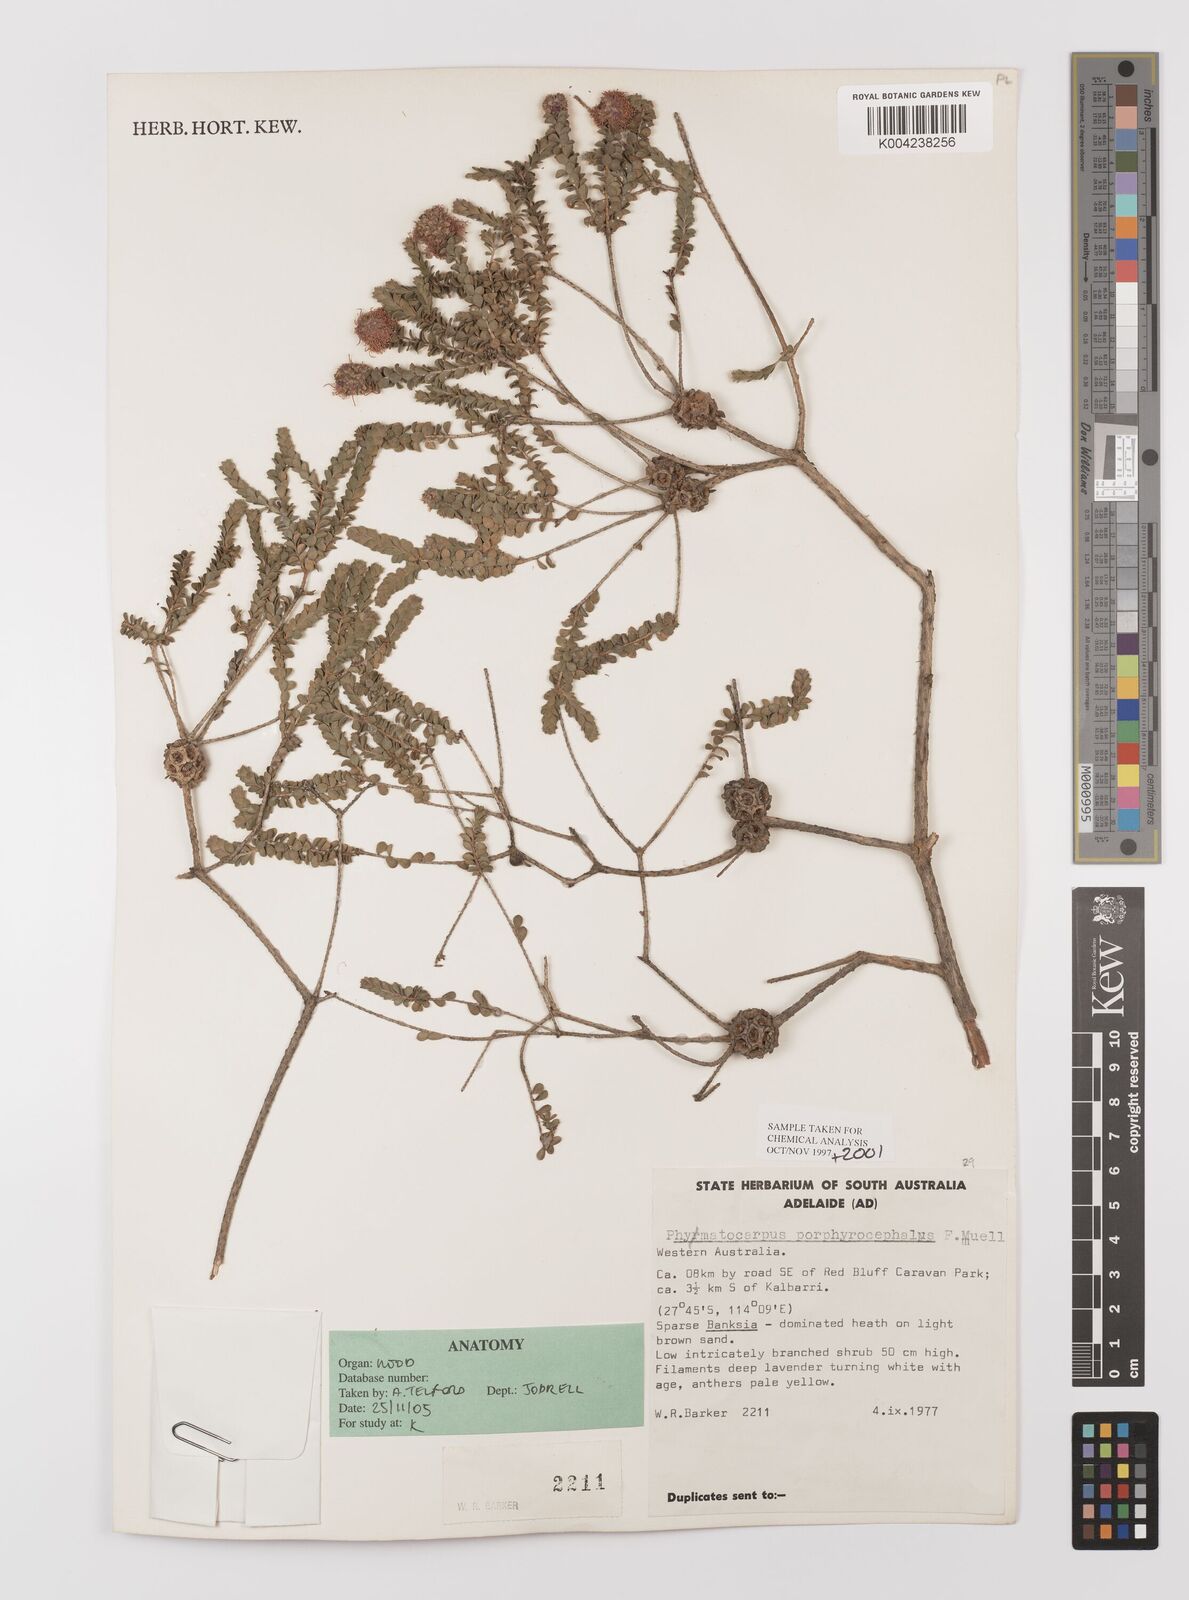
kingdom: Plantae
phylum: Tracheophyta
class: Magnoliopsida
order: Myrtales
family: Myrtaceae
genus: Melaleuca
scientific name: Melaleuca porphyrocephala
